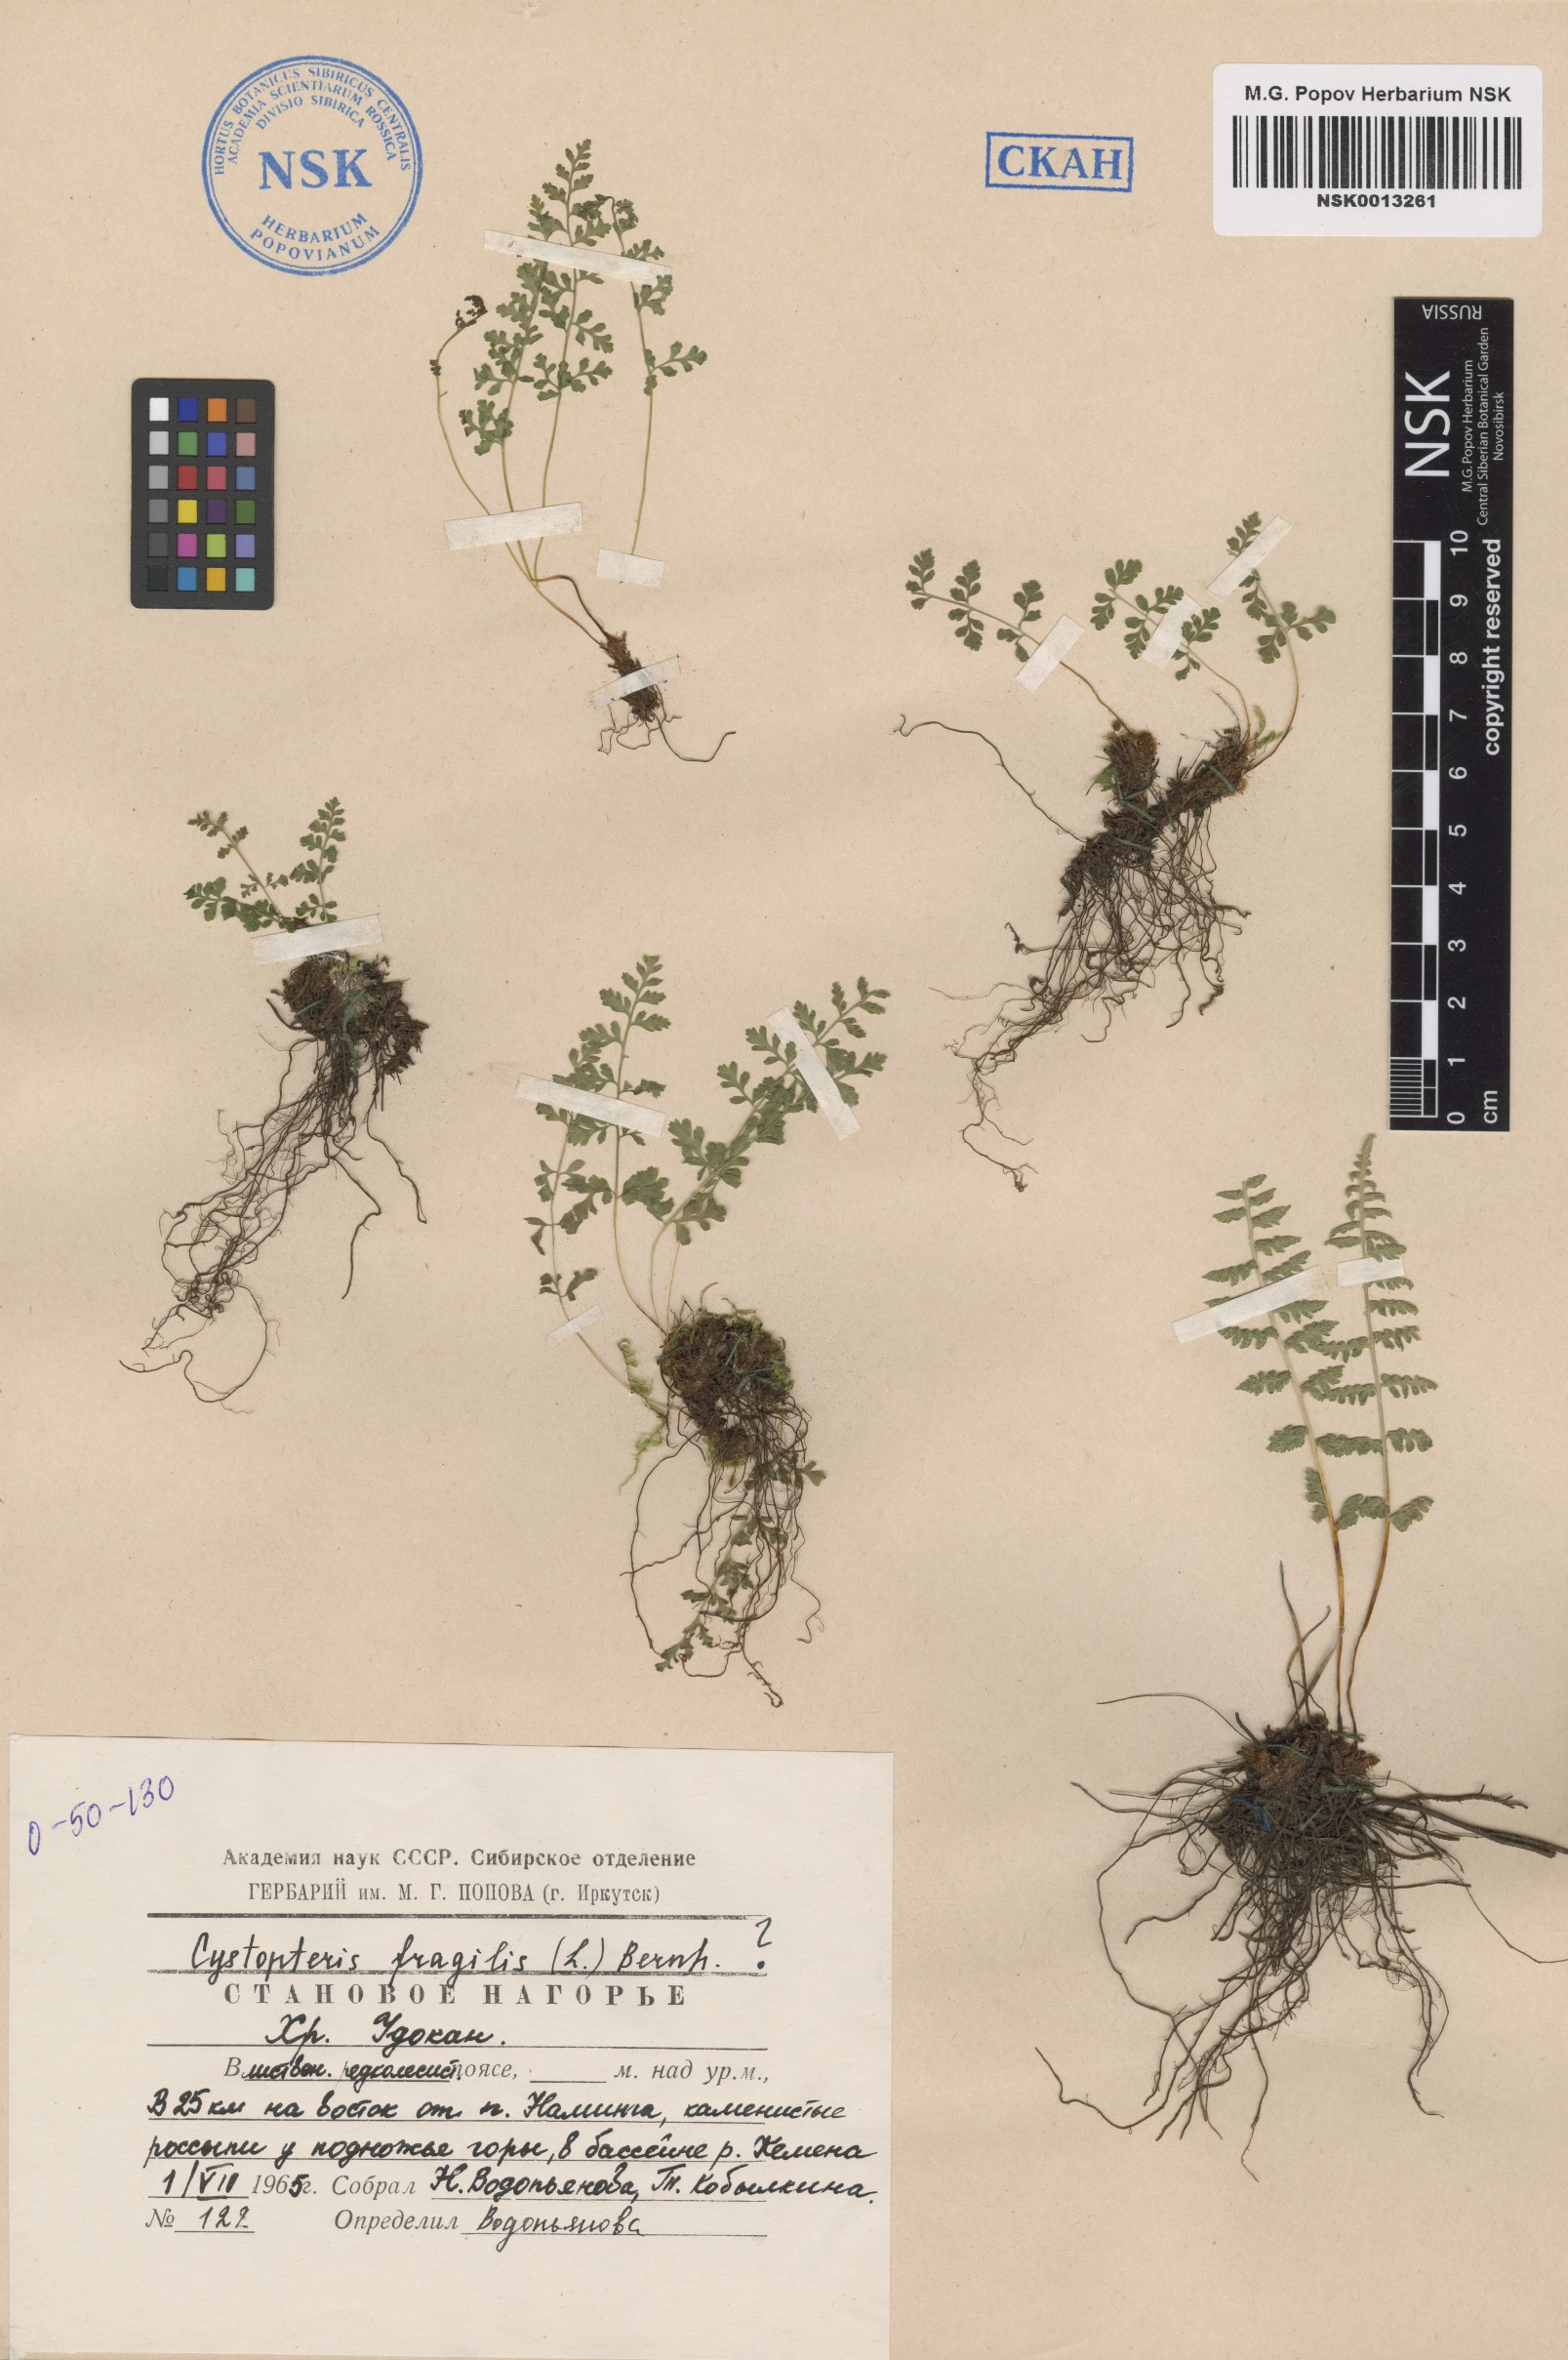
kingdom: Plantae
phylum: Tracheophyta
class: Polypodiopsida
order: Polypodiales
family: Cystopteridaceae
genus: Cystopteris
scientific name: Cystopteris fragilis
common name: Brittle bladder fern
